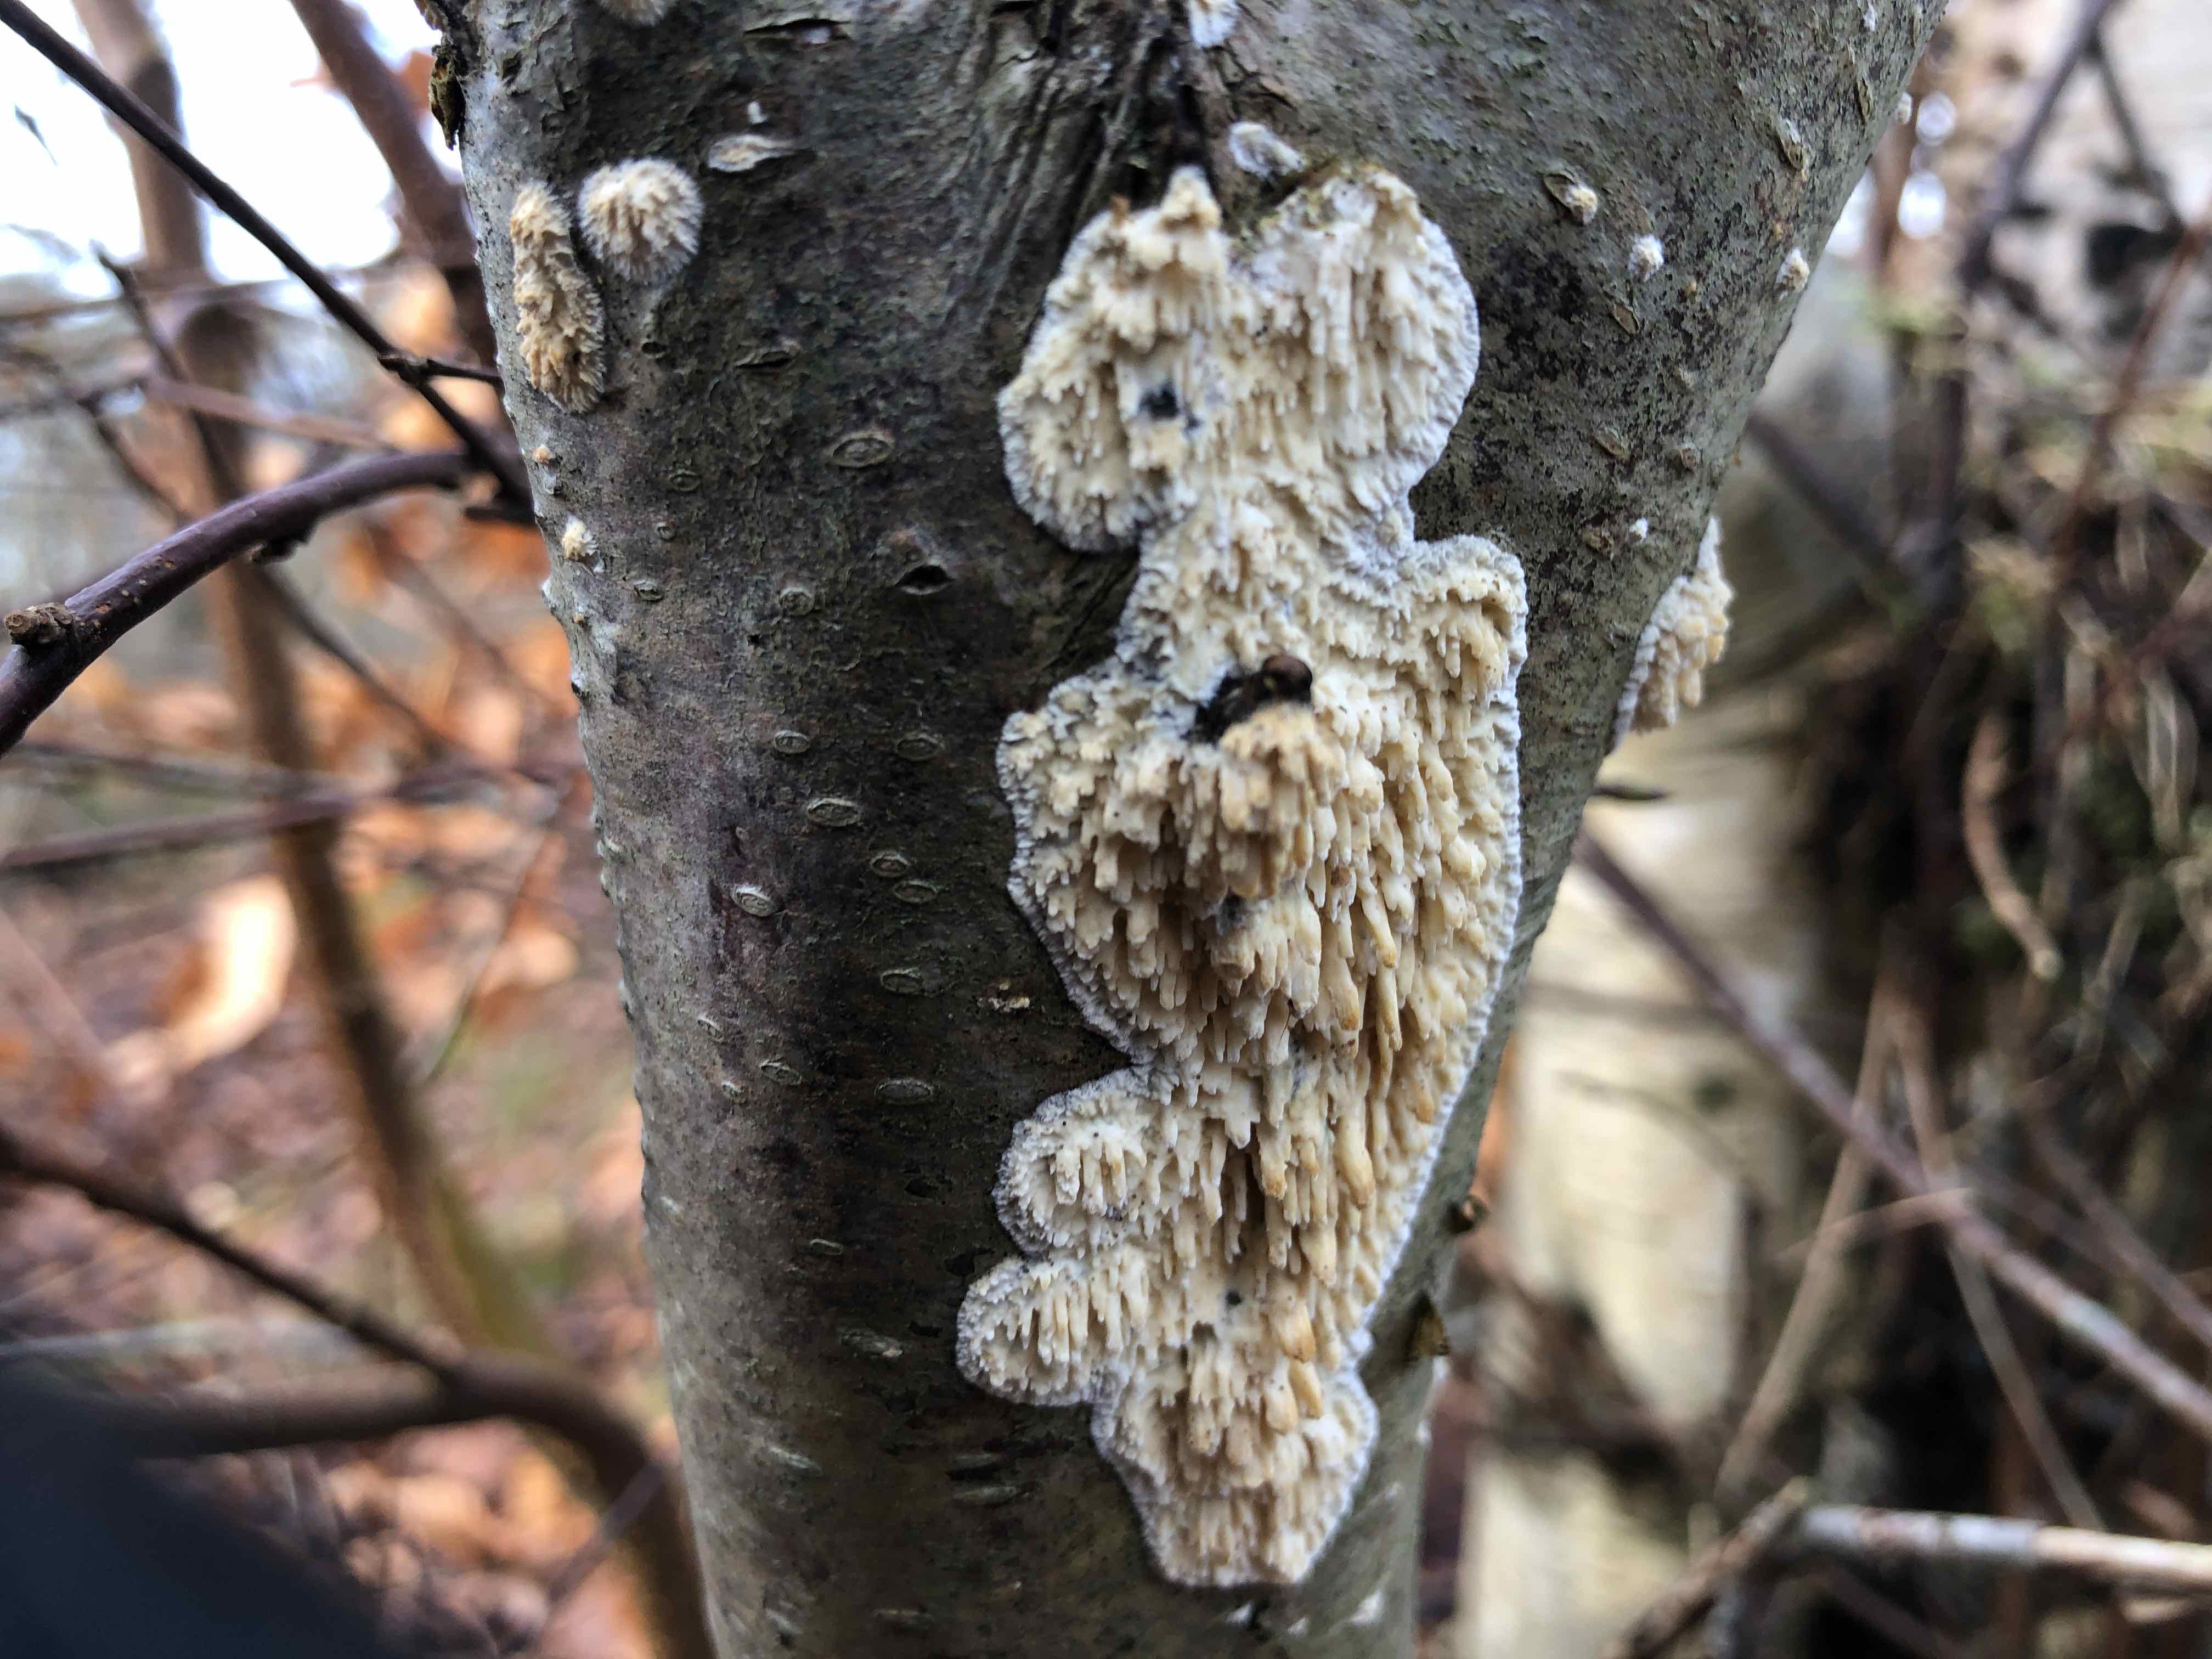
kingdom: Fungi
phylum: Basidiomycota
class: Agaricomycetes
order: Hymenochaetales
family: Schizoporaceae
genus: Xylodon
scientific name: Xylodon radula
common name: grovtandet kalkskind
